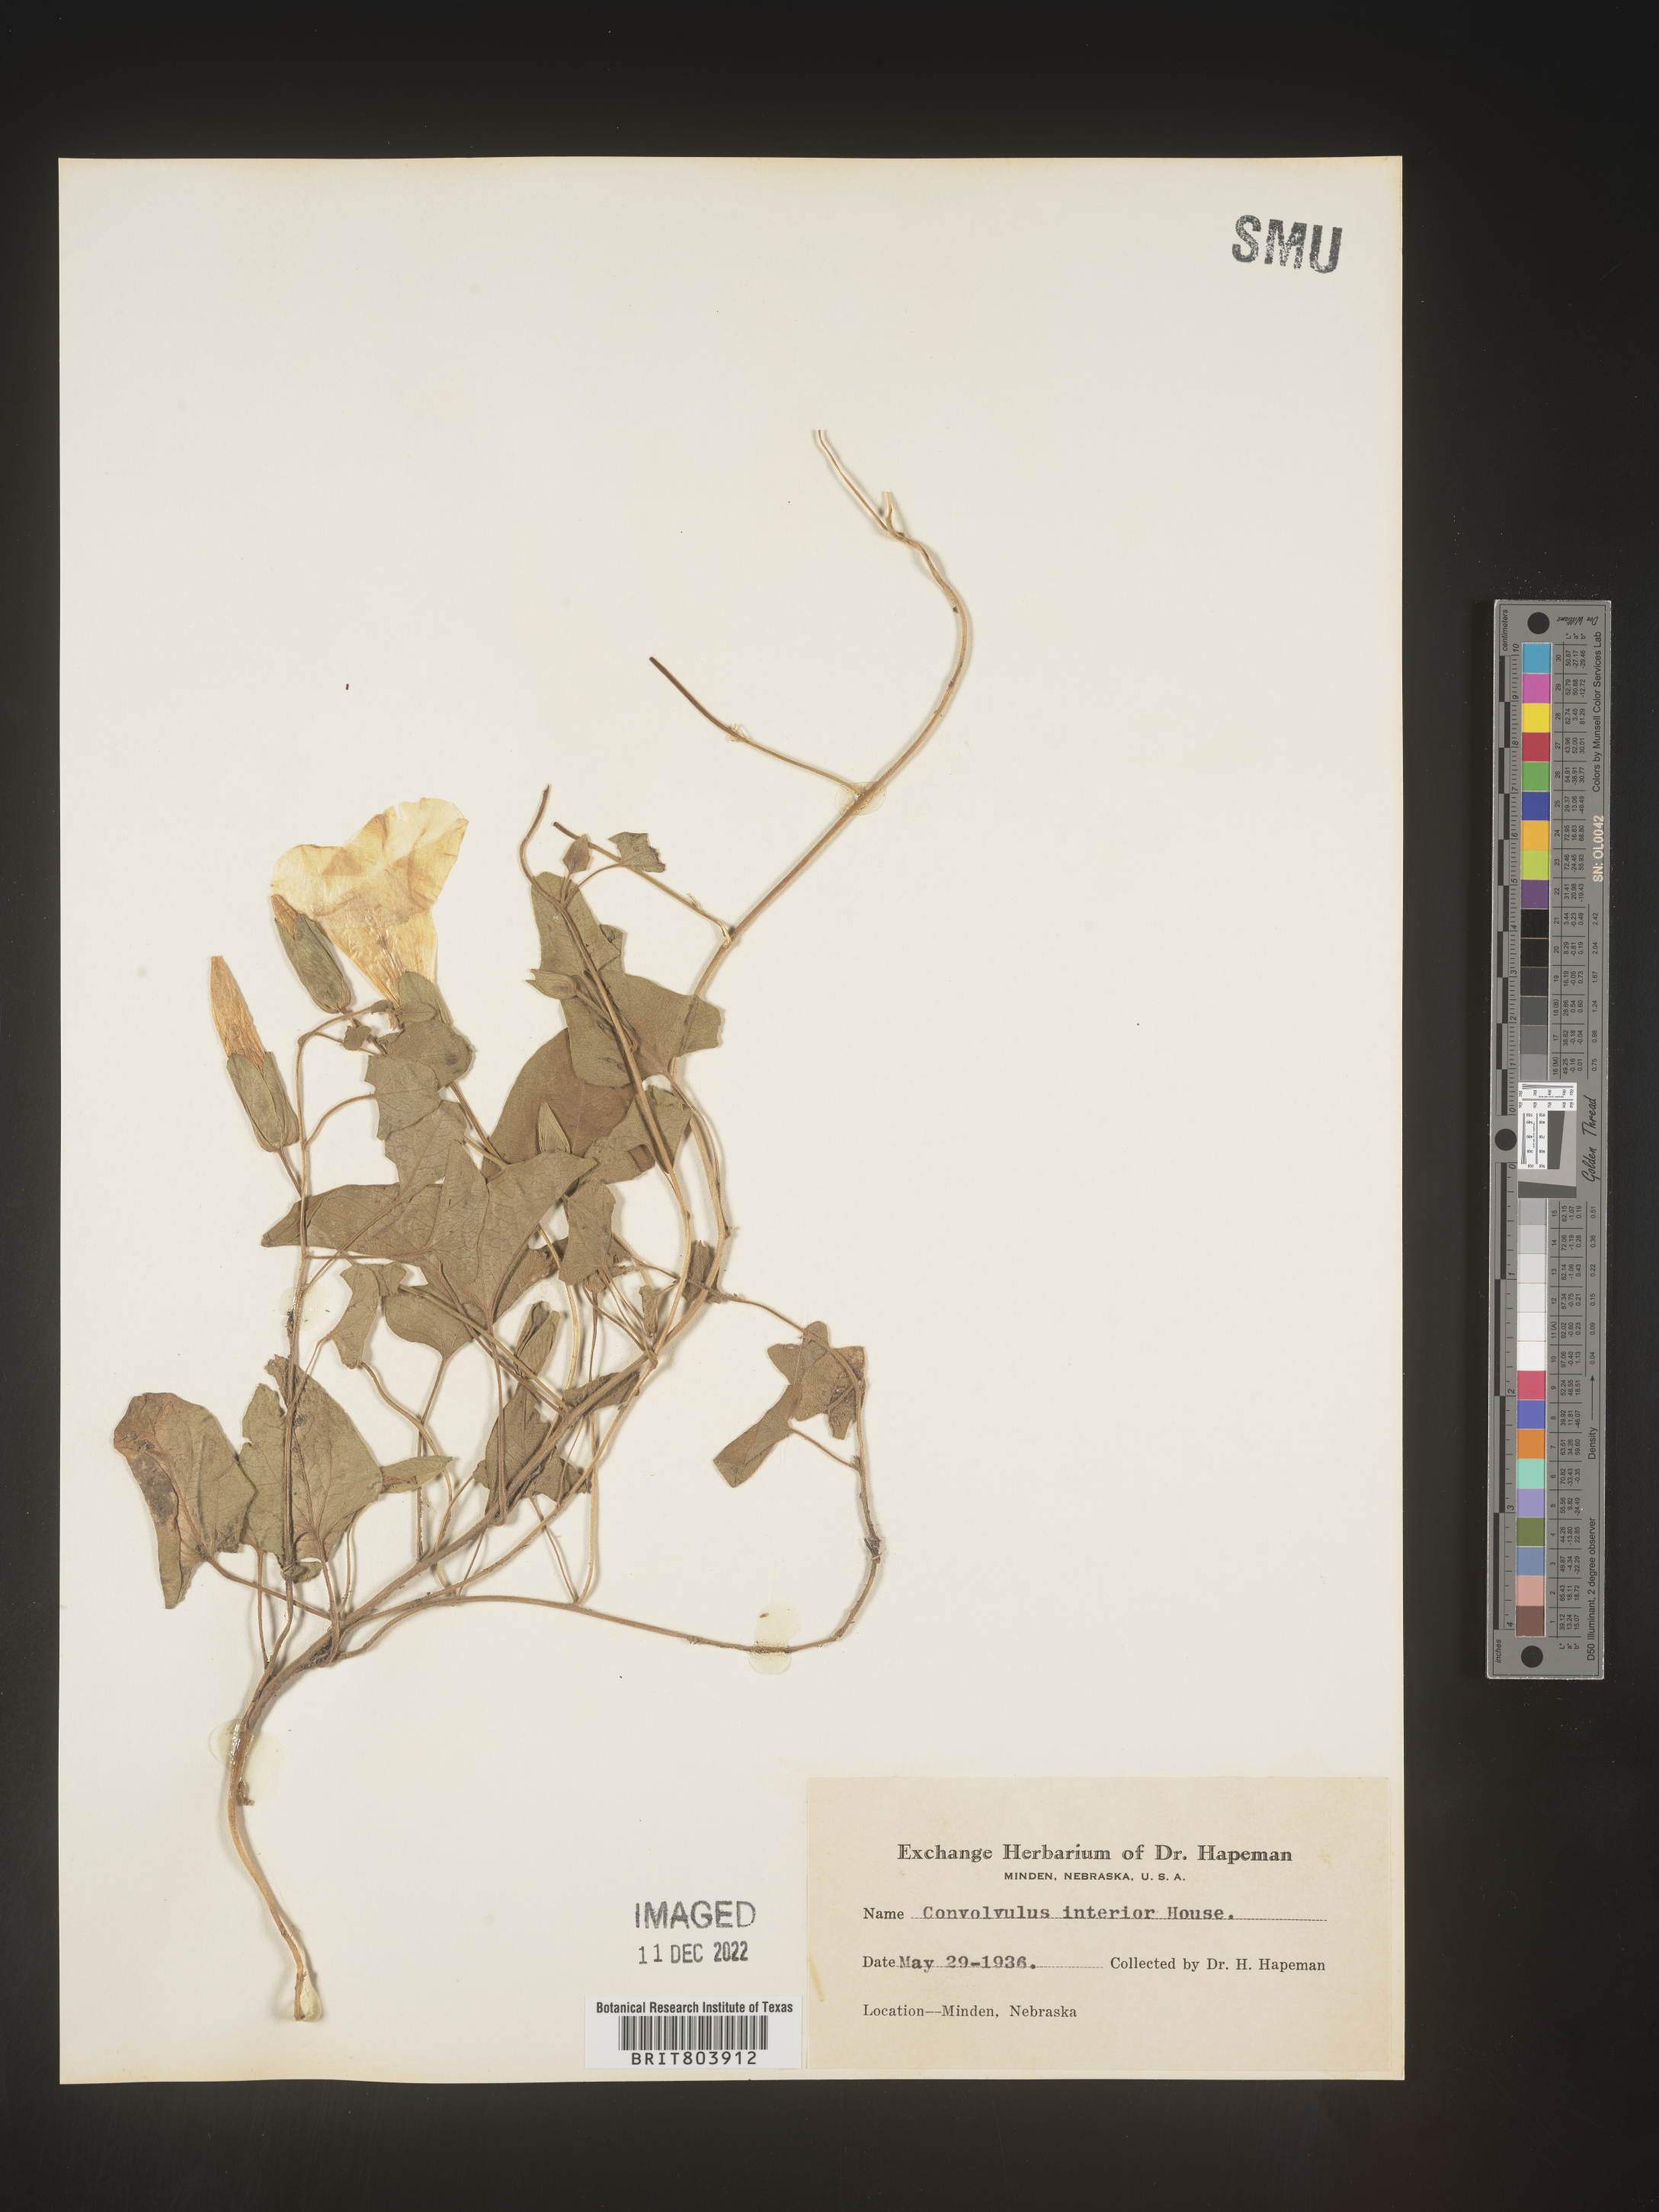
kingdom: Plantae
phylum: Tracheophyta
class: Magnoliopsida
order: Solanales
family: Convolvulaceae
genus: Calystegia
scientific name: Calystegia sepium
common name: Hedge bindweed
